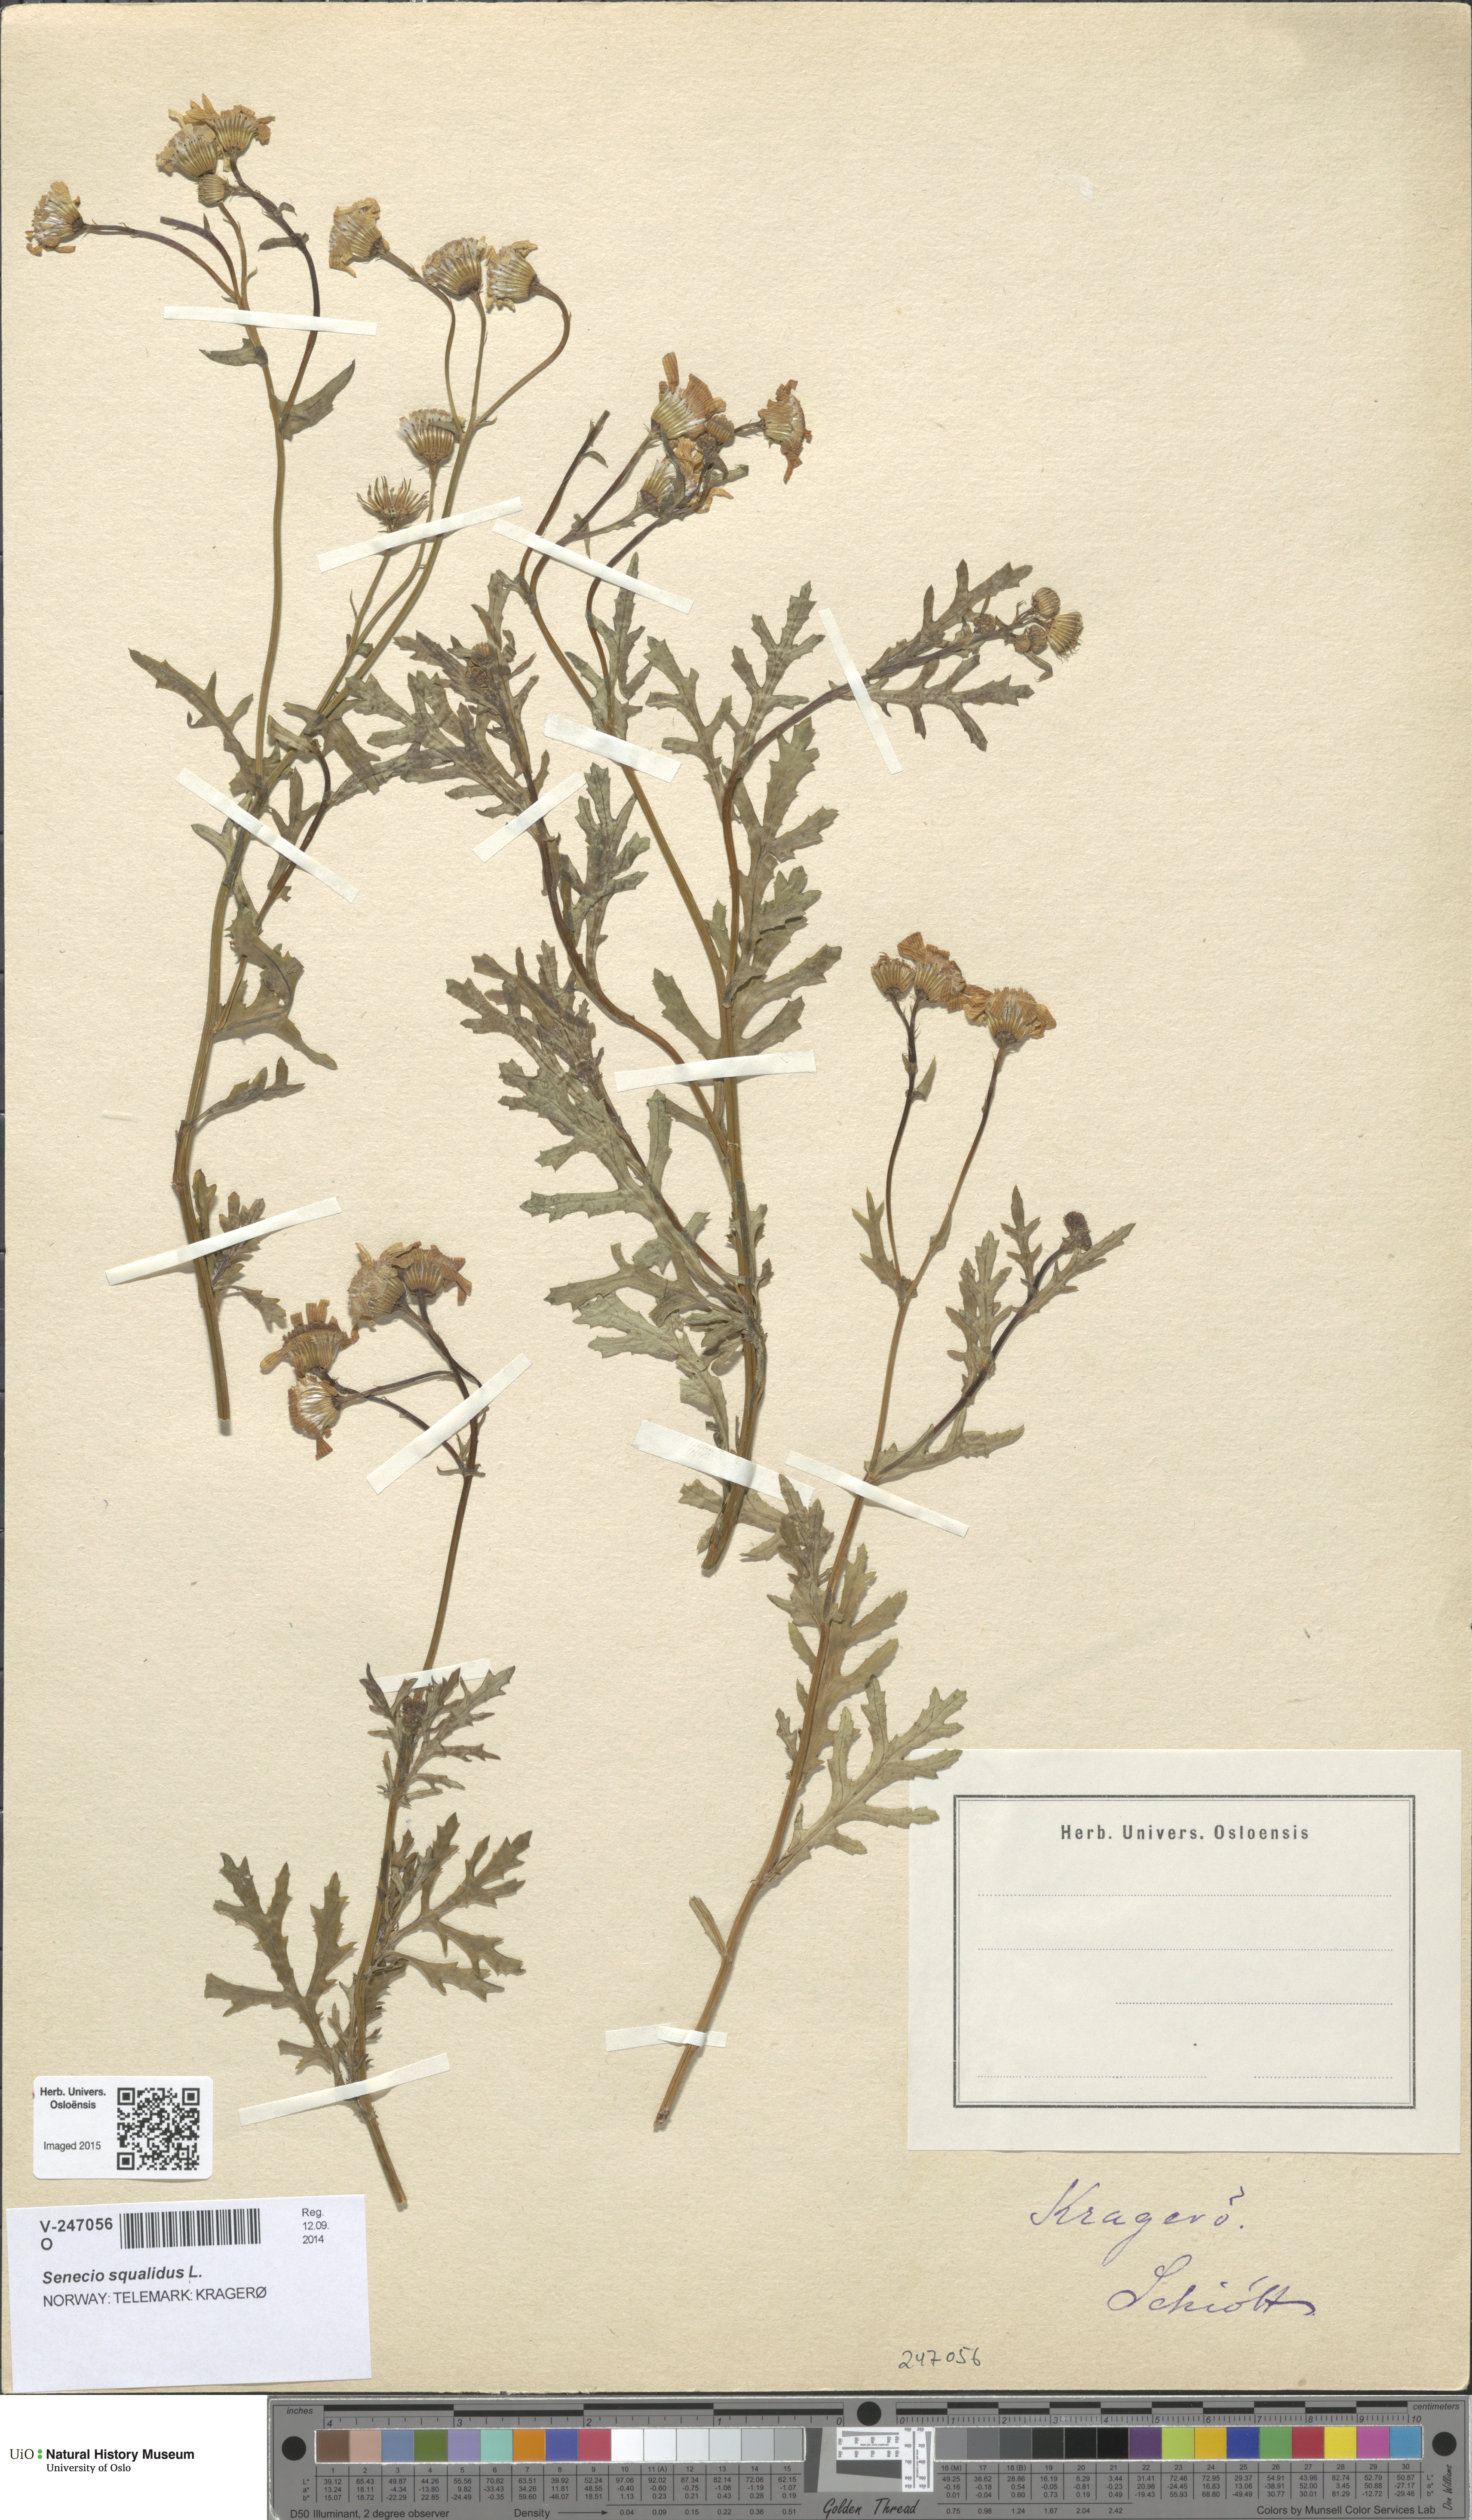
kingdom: Plantae
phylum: Tracheophyta
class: Magnoliopsida
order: Asterales
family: Asteraceae
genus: Senecio
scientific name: Senecio squalidus
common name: Oxford ragwort
